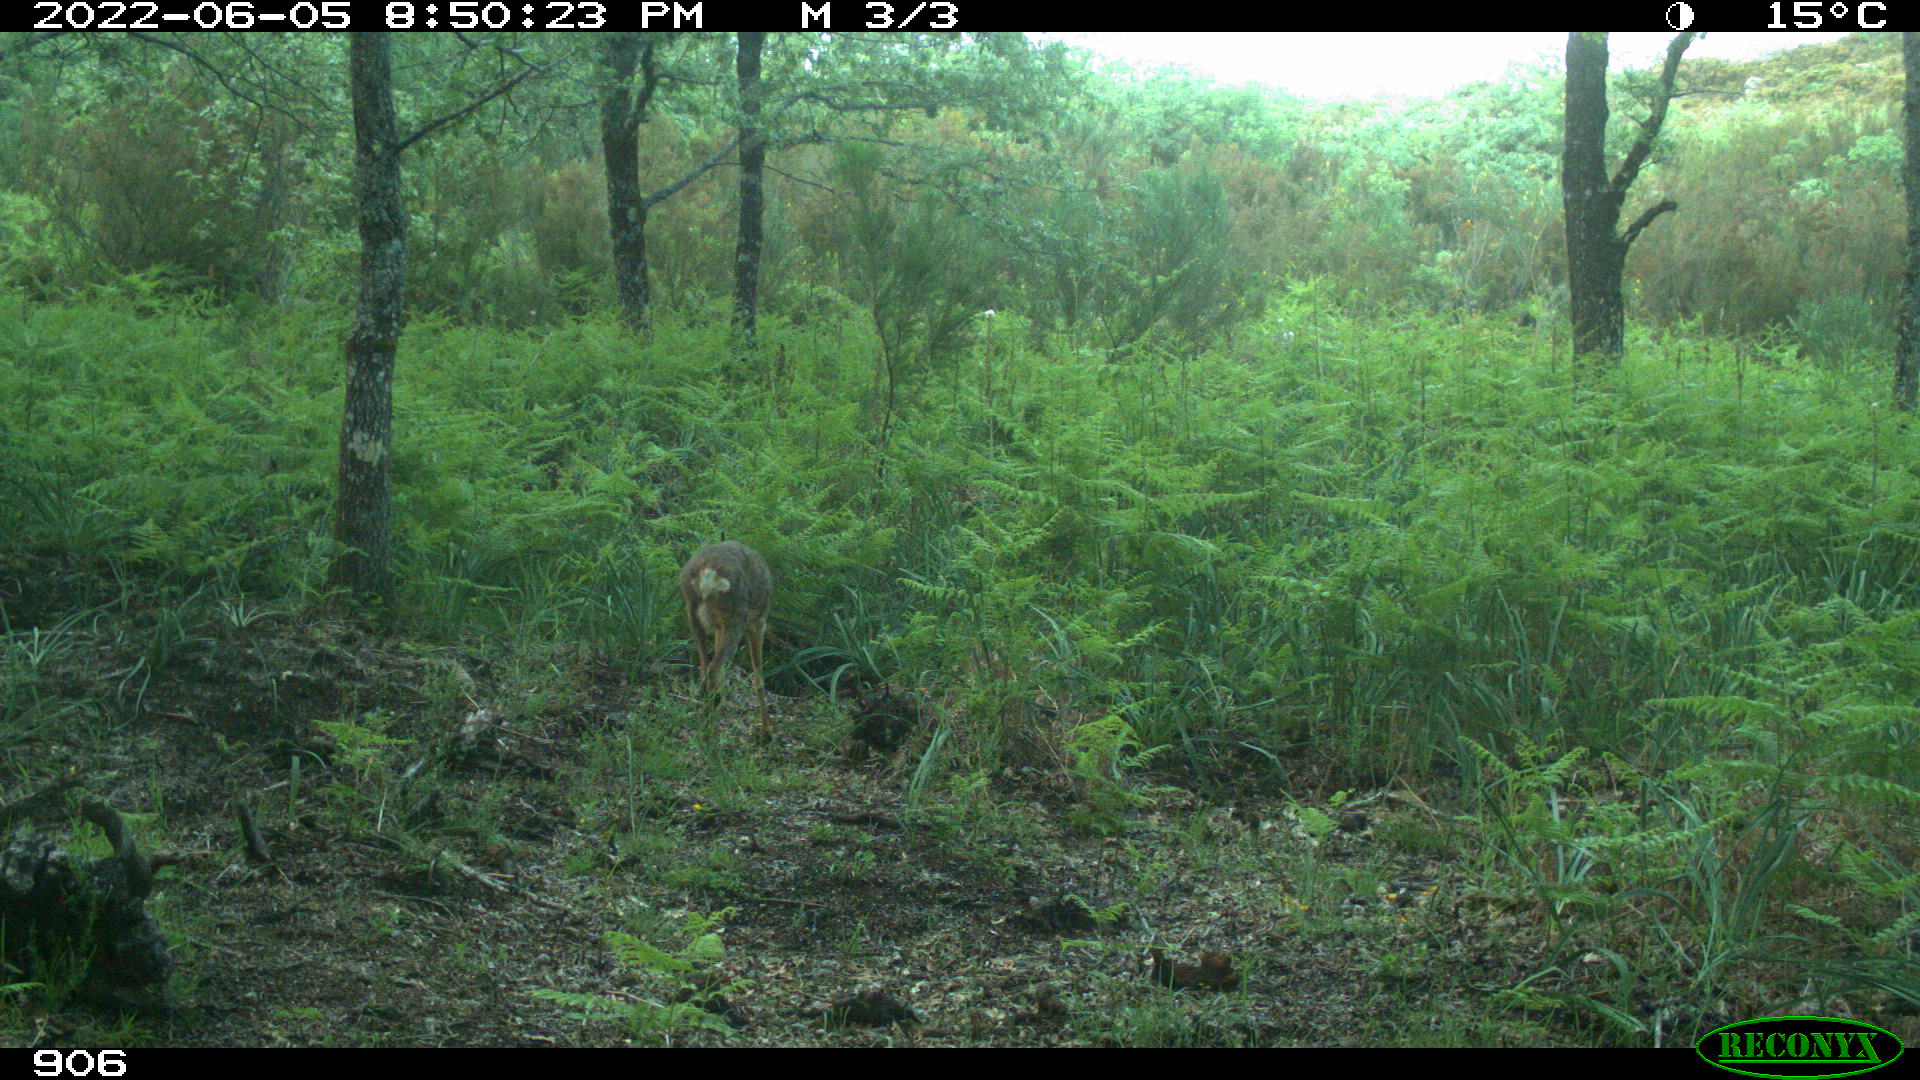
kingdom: Animalia
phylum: Chordata
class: Mammalia
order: Artiodactyla
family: Cervidae
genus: Capreolus
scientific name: Capreolus capreolus
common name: Western roe deer
